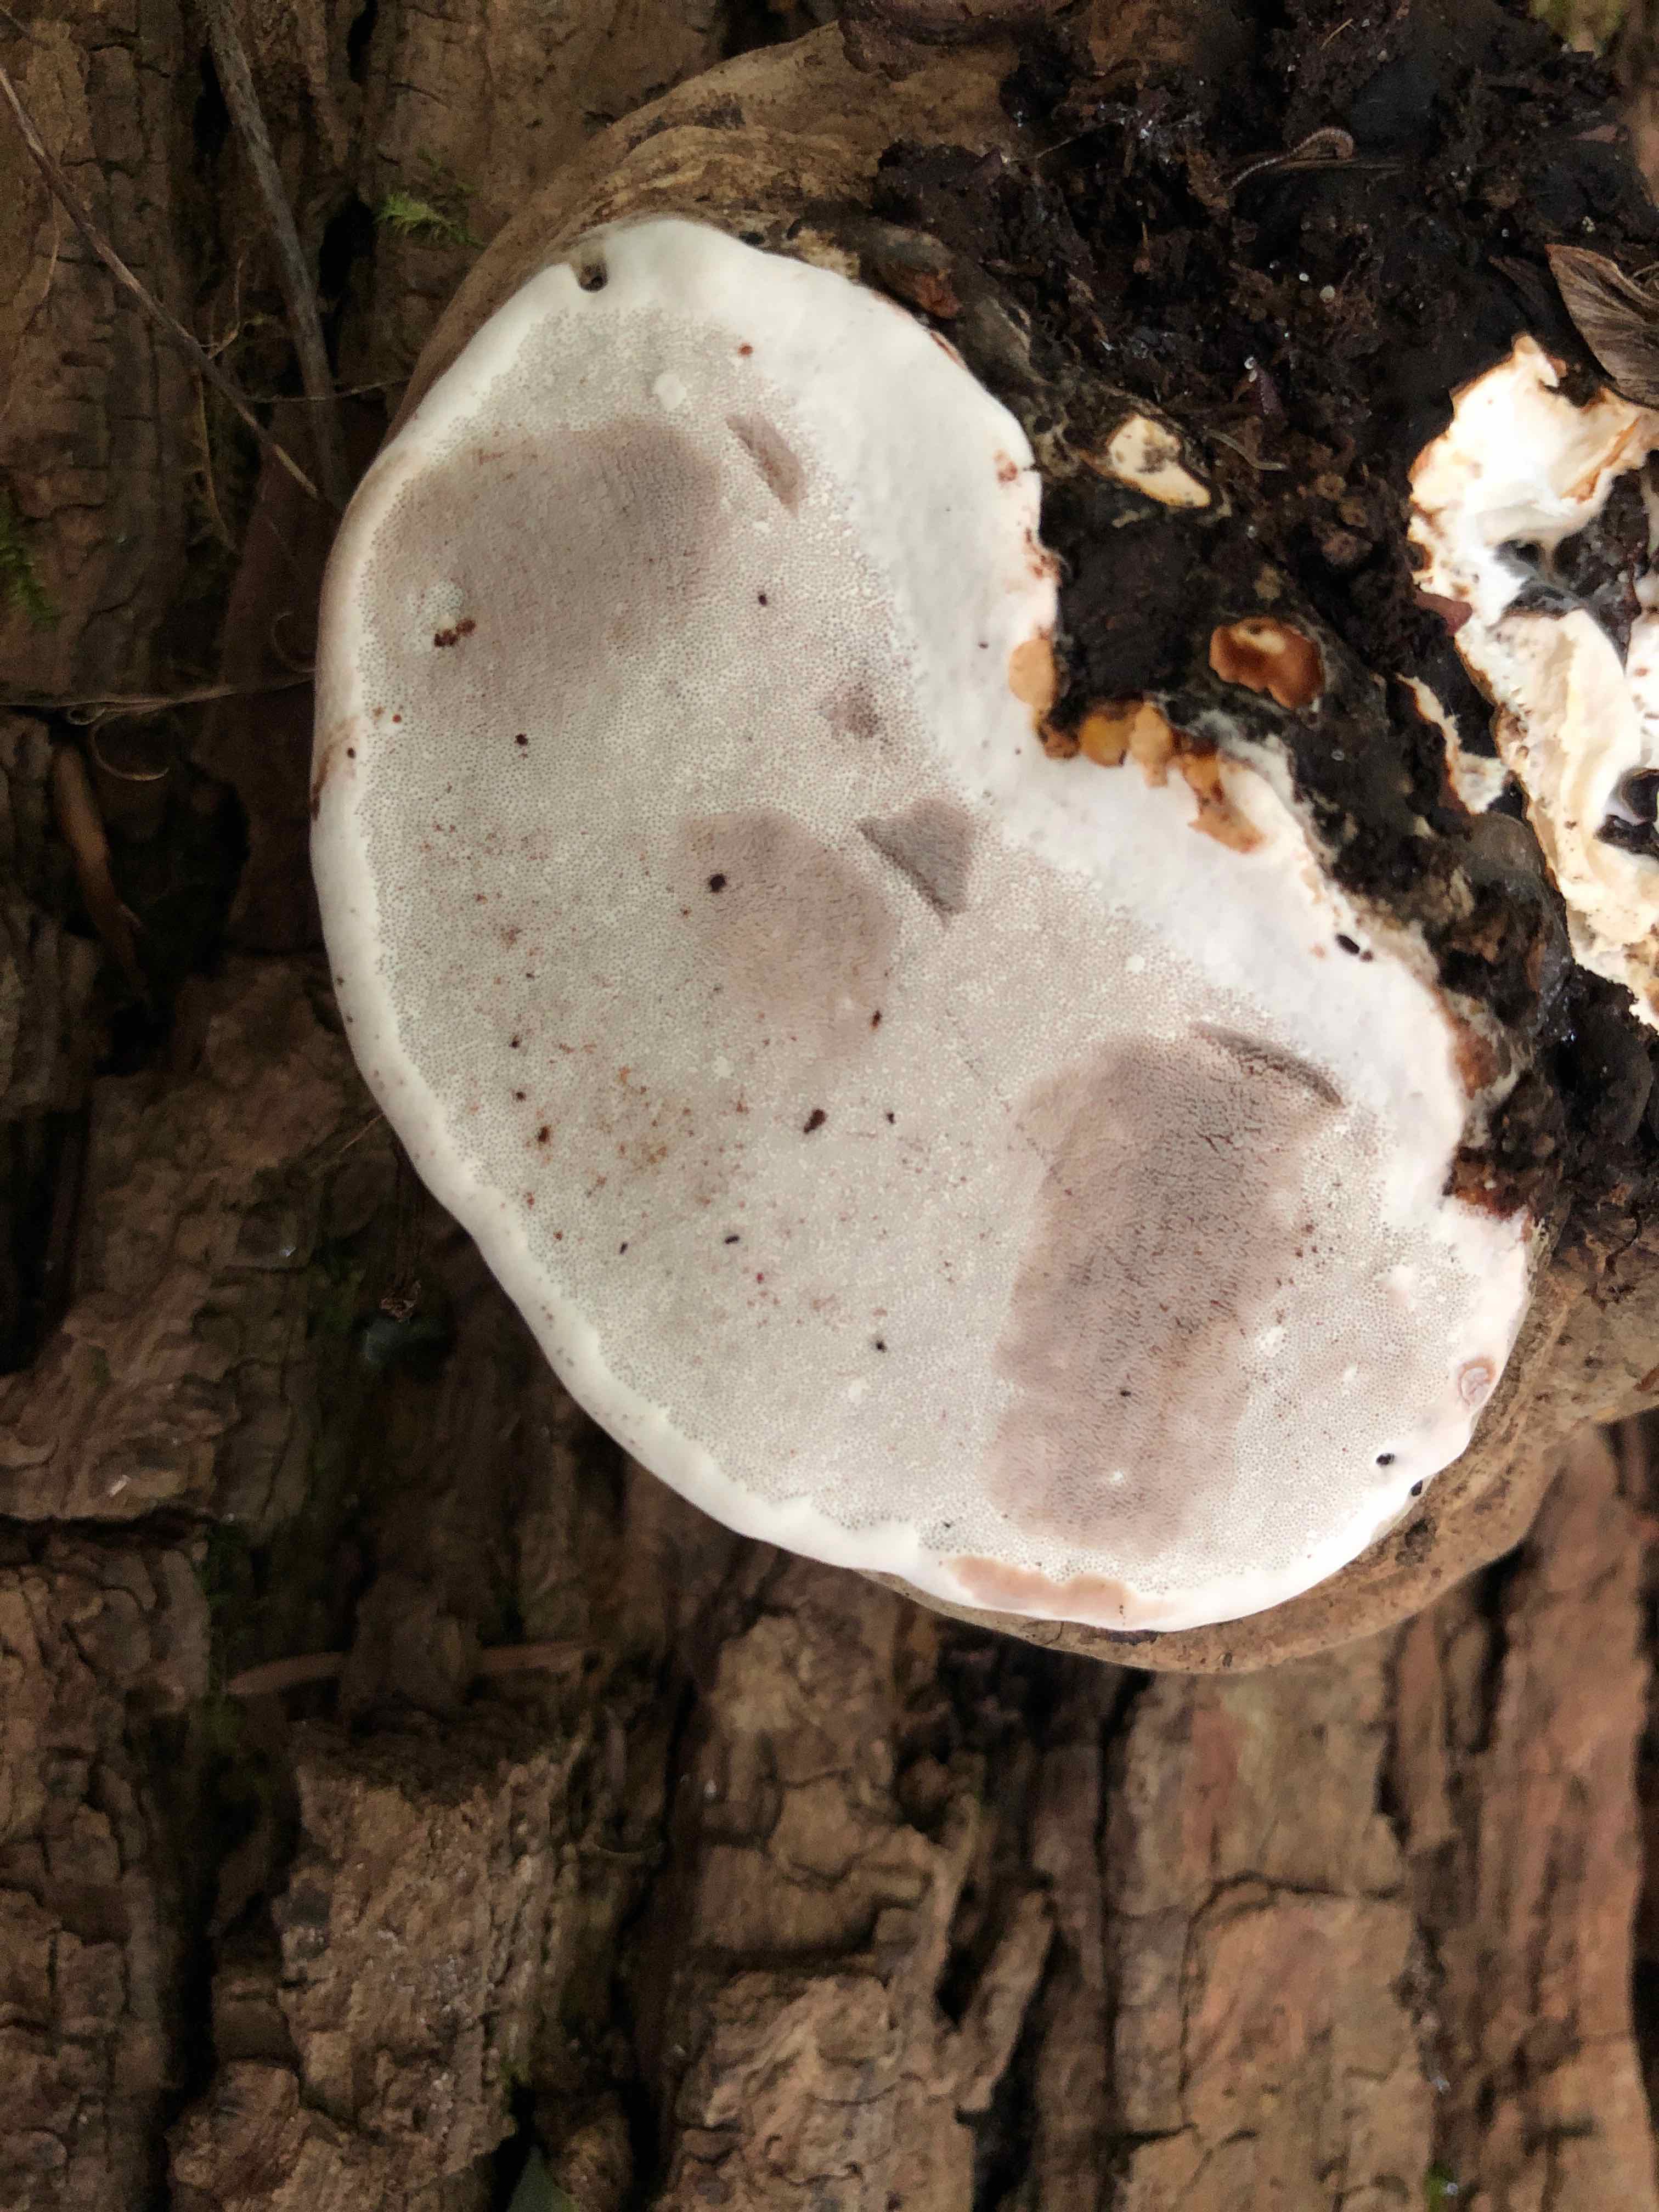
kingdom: Fungi
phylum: Basidiomycota
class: Agaricomycetes
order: Polyporales
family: Polyporaceae
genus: Ganoderma
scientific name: Ganoderma applanatum
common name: flad lakporesvamp
